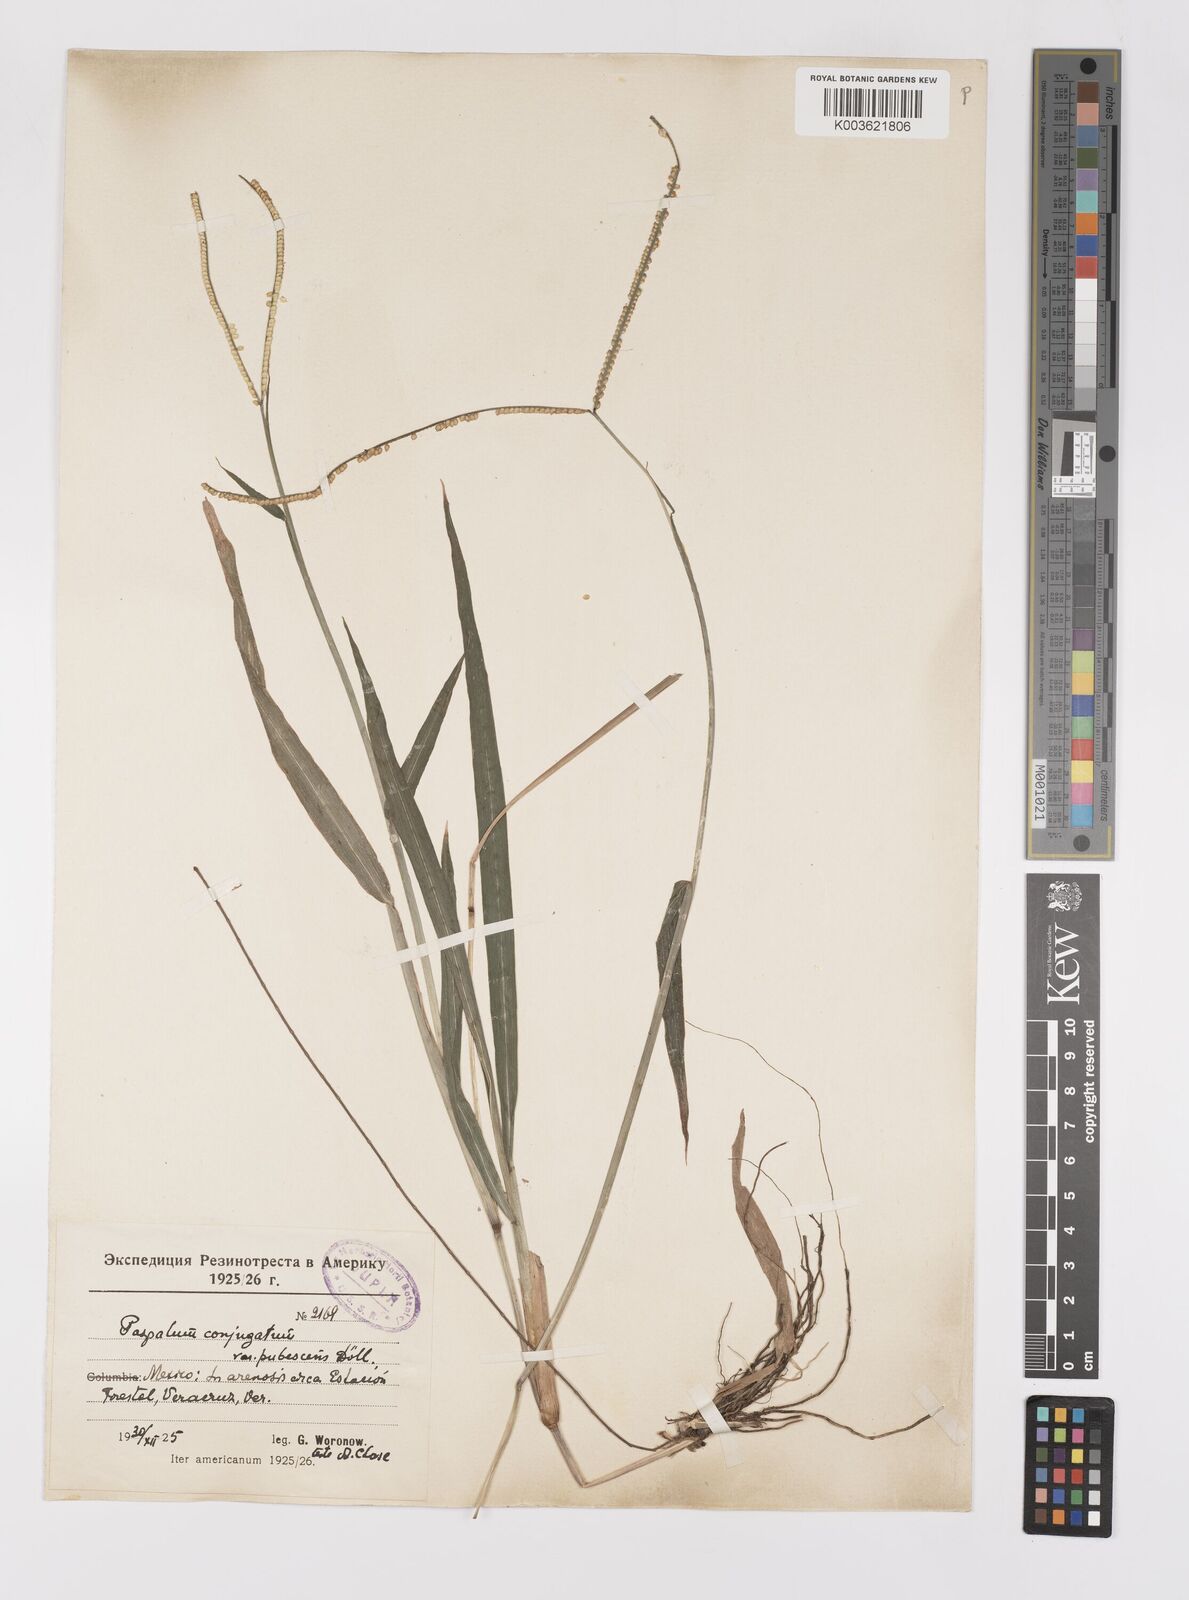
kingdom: Plantae
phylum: Tracheophyta
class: Liliopsida
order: Poales
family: Poaceae
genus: Paspalum
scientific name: Paspalum conjugatum
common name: Hilograss
